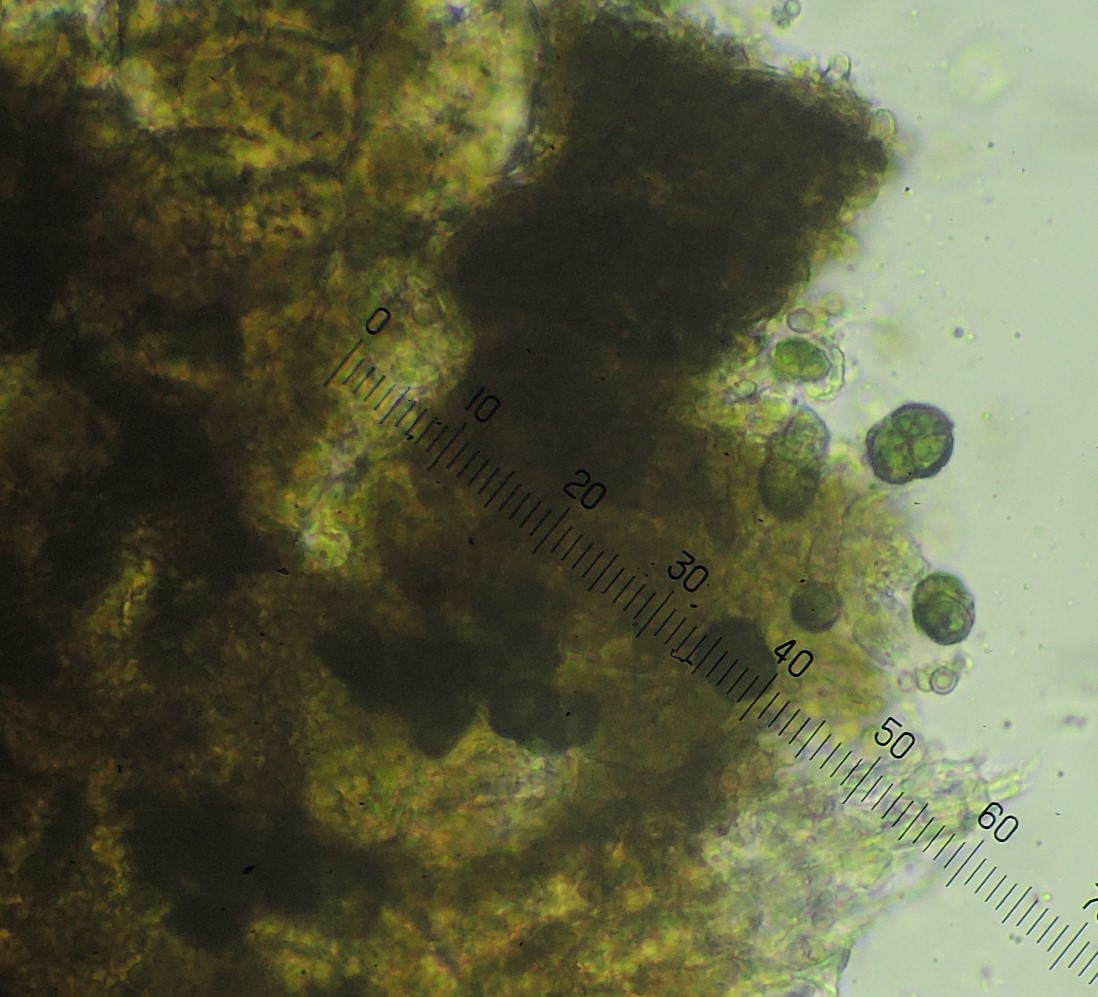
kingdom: Fungi
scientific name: Fungi
